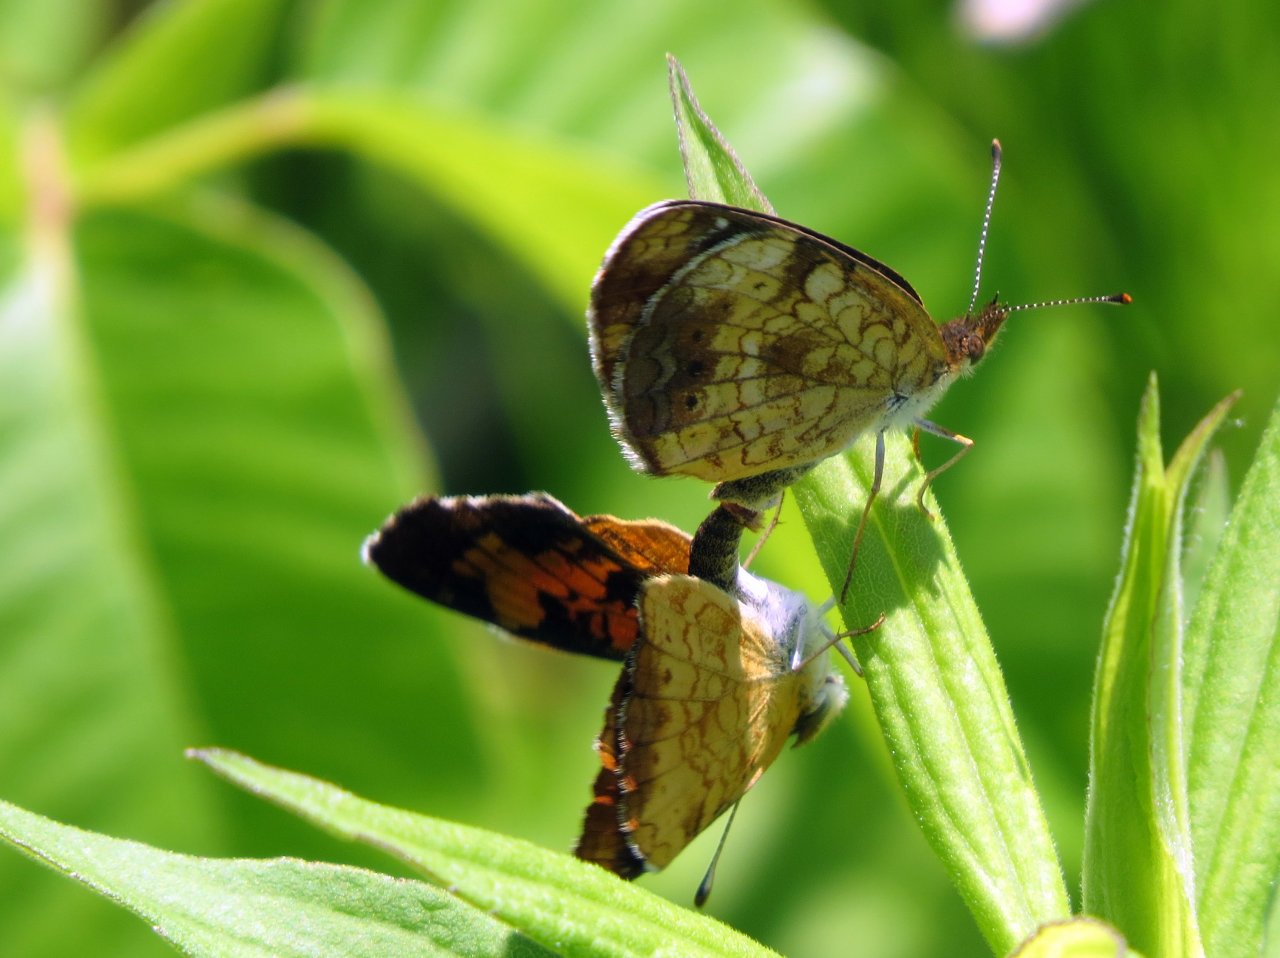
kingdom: Animalia
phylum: Arthropoda
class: Insecta
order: Lepidoptera
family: Nymphalidae
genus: Phyciodes
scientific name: Phyciodes tharos
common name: Northern Crescent
